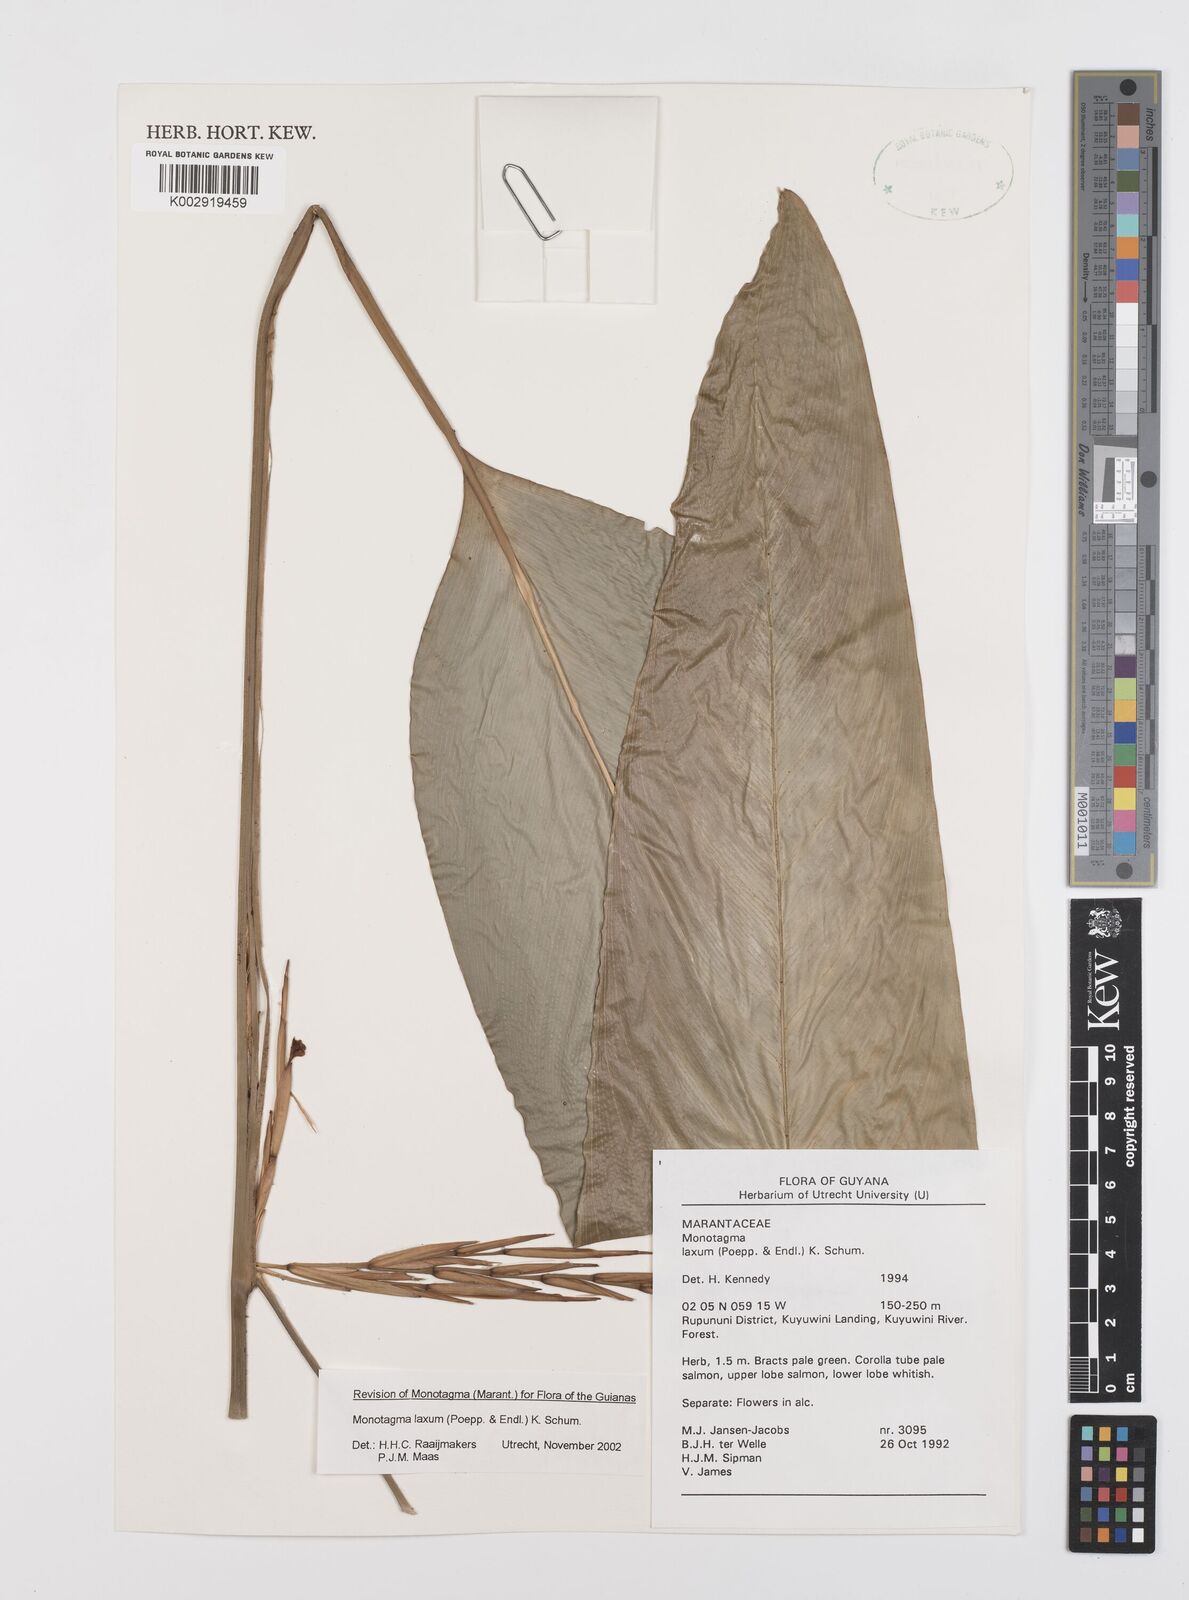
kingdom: Plantae
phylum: Tracheophyta
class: Liliopsida
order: Zingiberales
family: Marantaceae
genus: Monotagma
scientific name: Monotagma laxum
